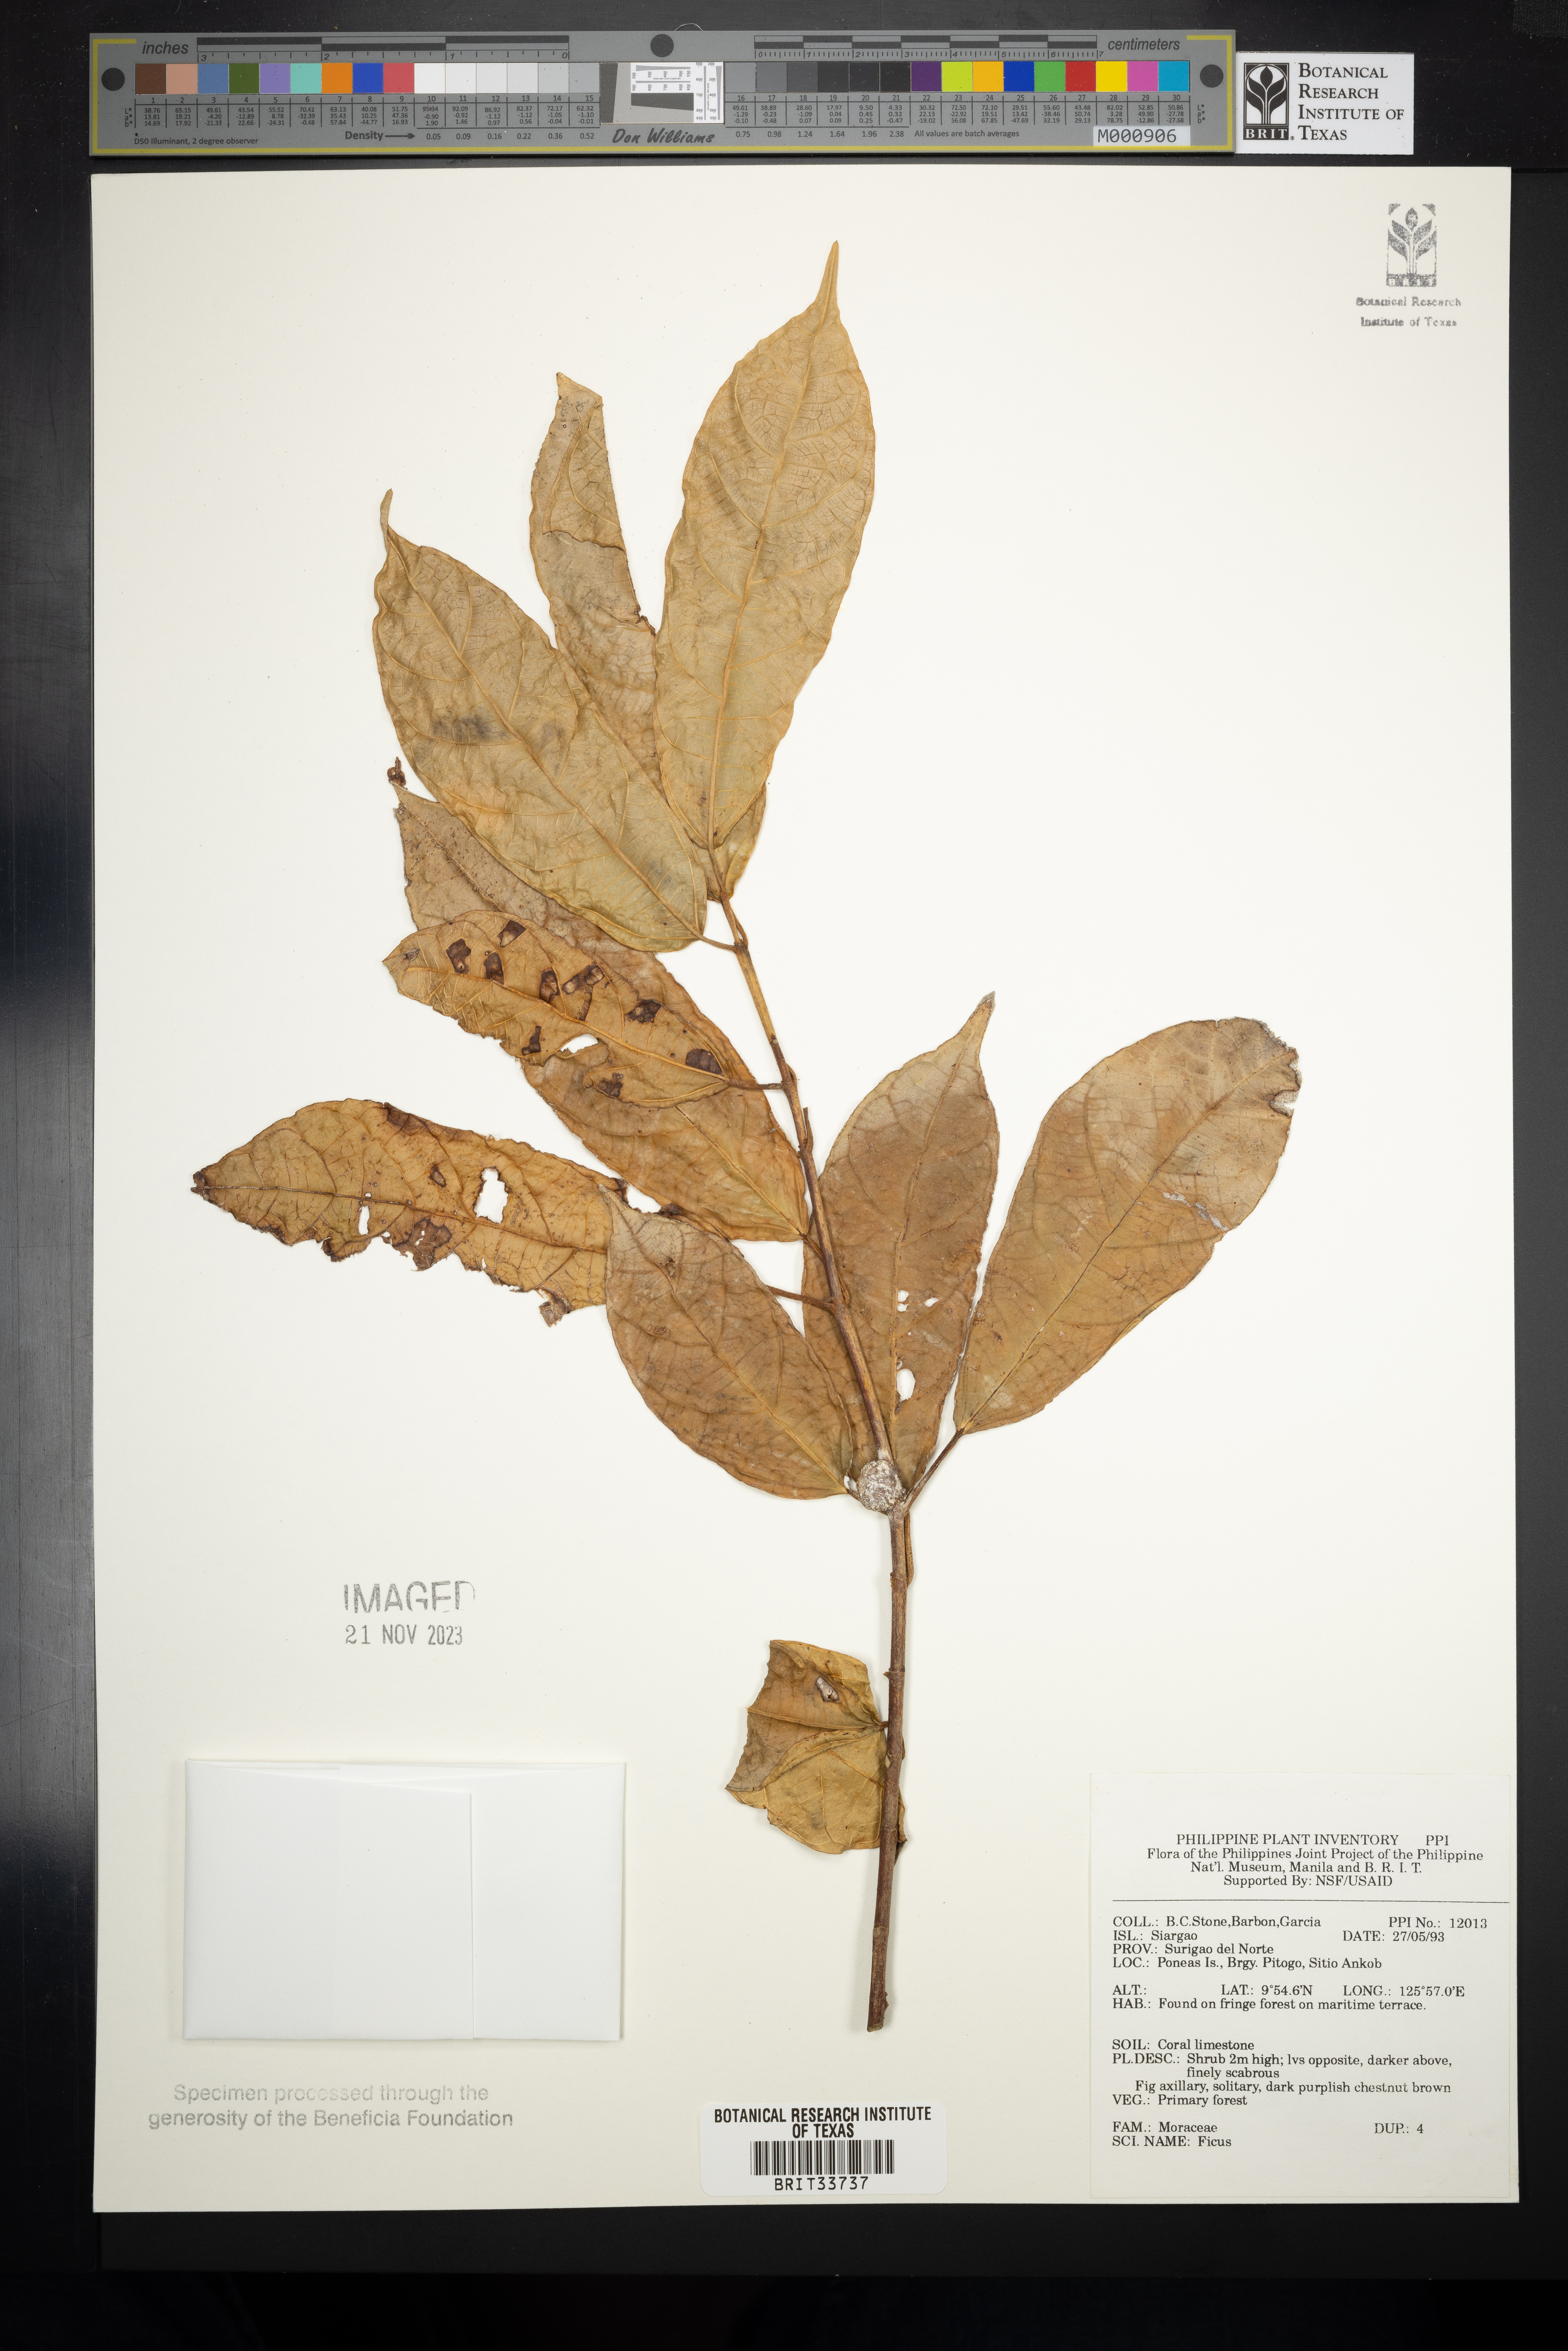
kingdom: Plantae
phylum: Tracheophyta
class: Magnoliopsida
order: Rosales
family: Moraceae
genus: Ficus
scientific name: Ficus
